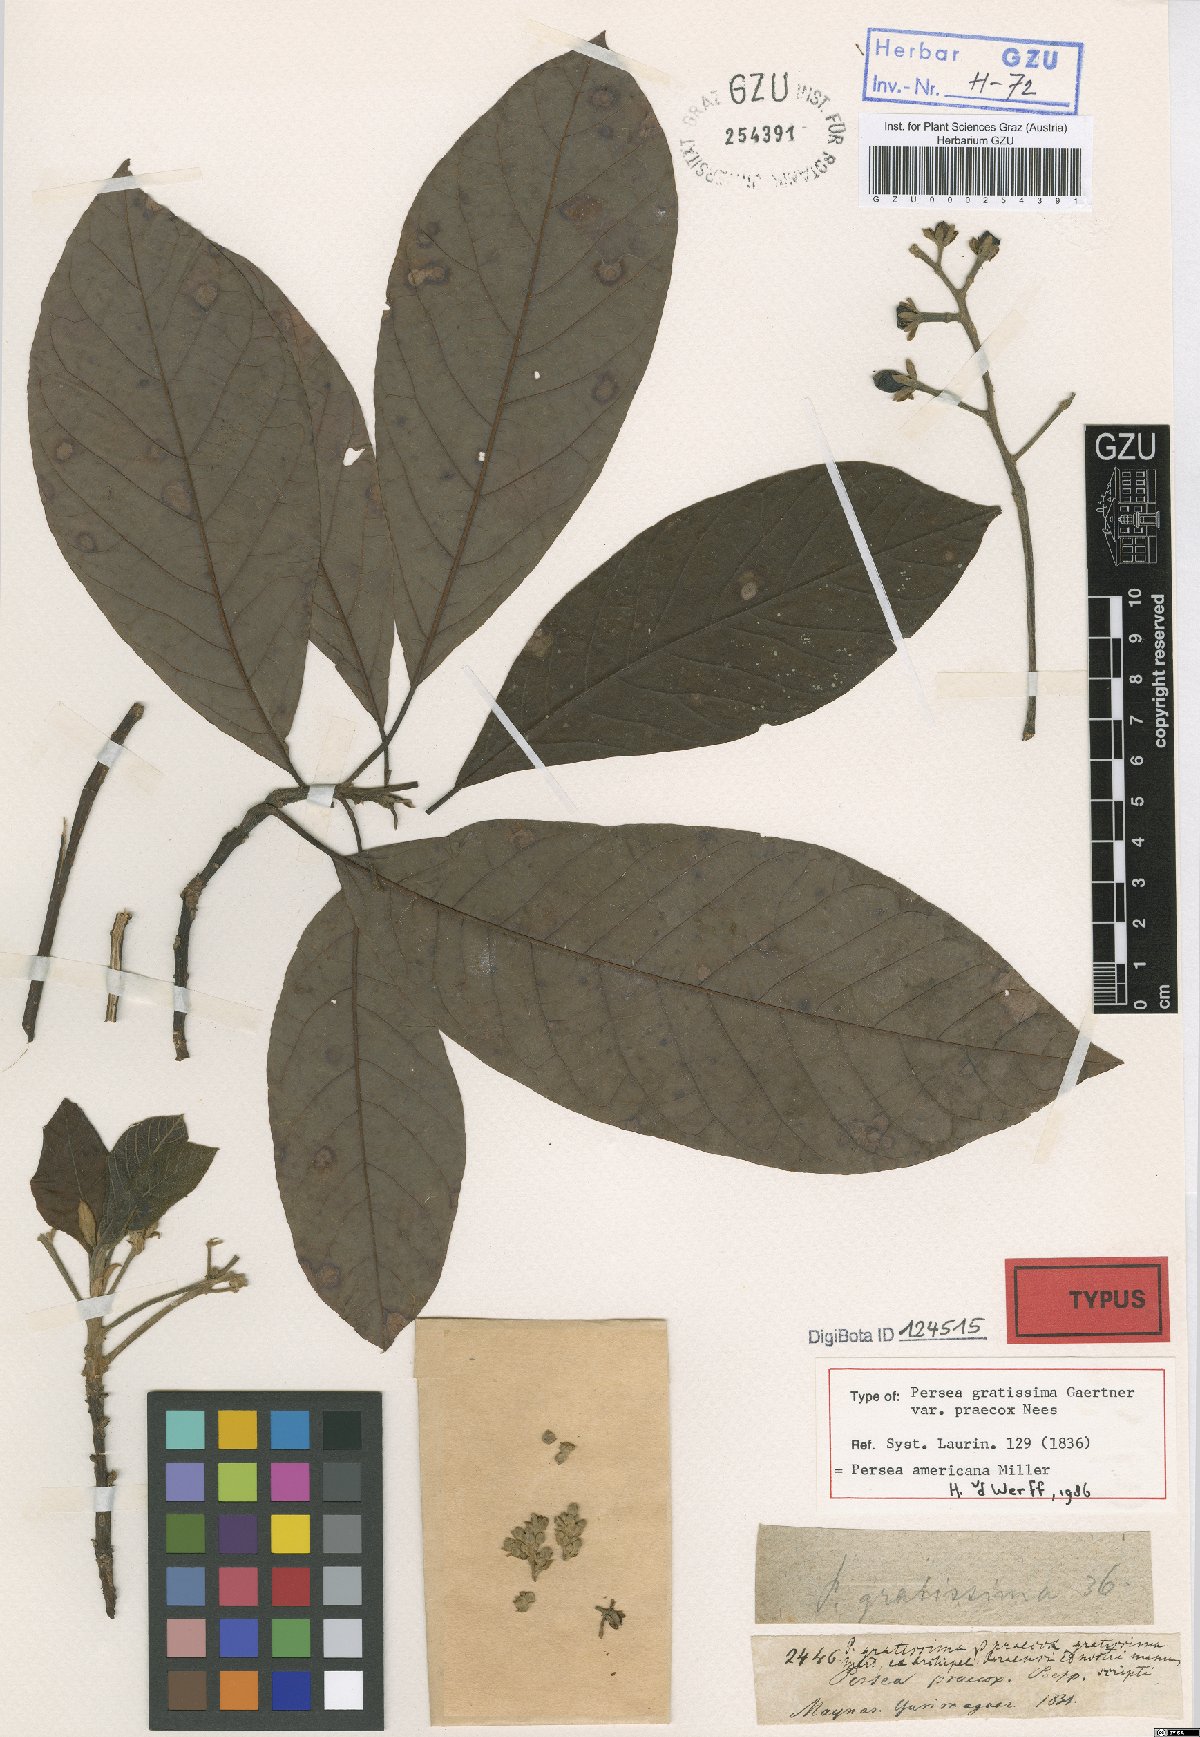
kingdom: Plantae
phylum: Tracheophyta
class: Magnoliopsida
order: Laurales
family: Lauraceae
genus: Persea
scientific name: Persea americana
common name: Avocado
